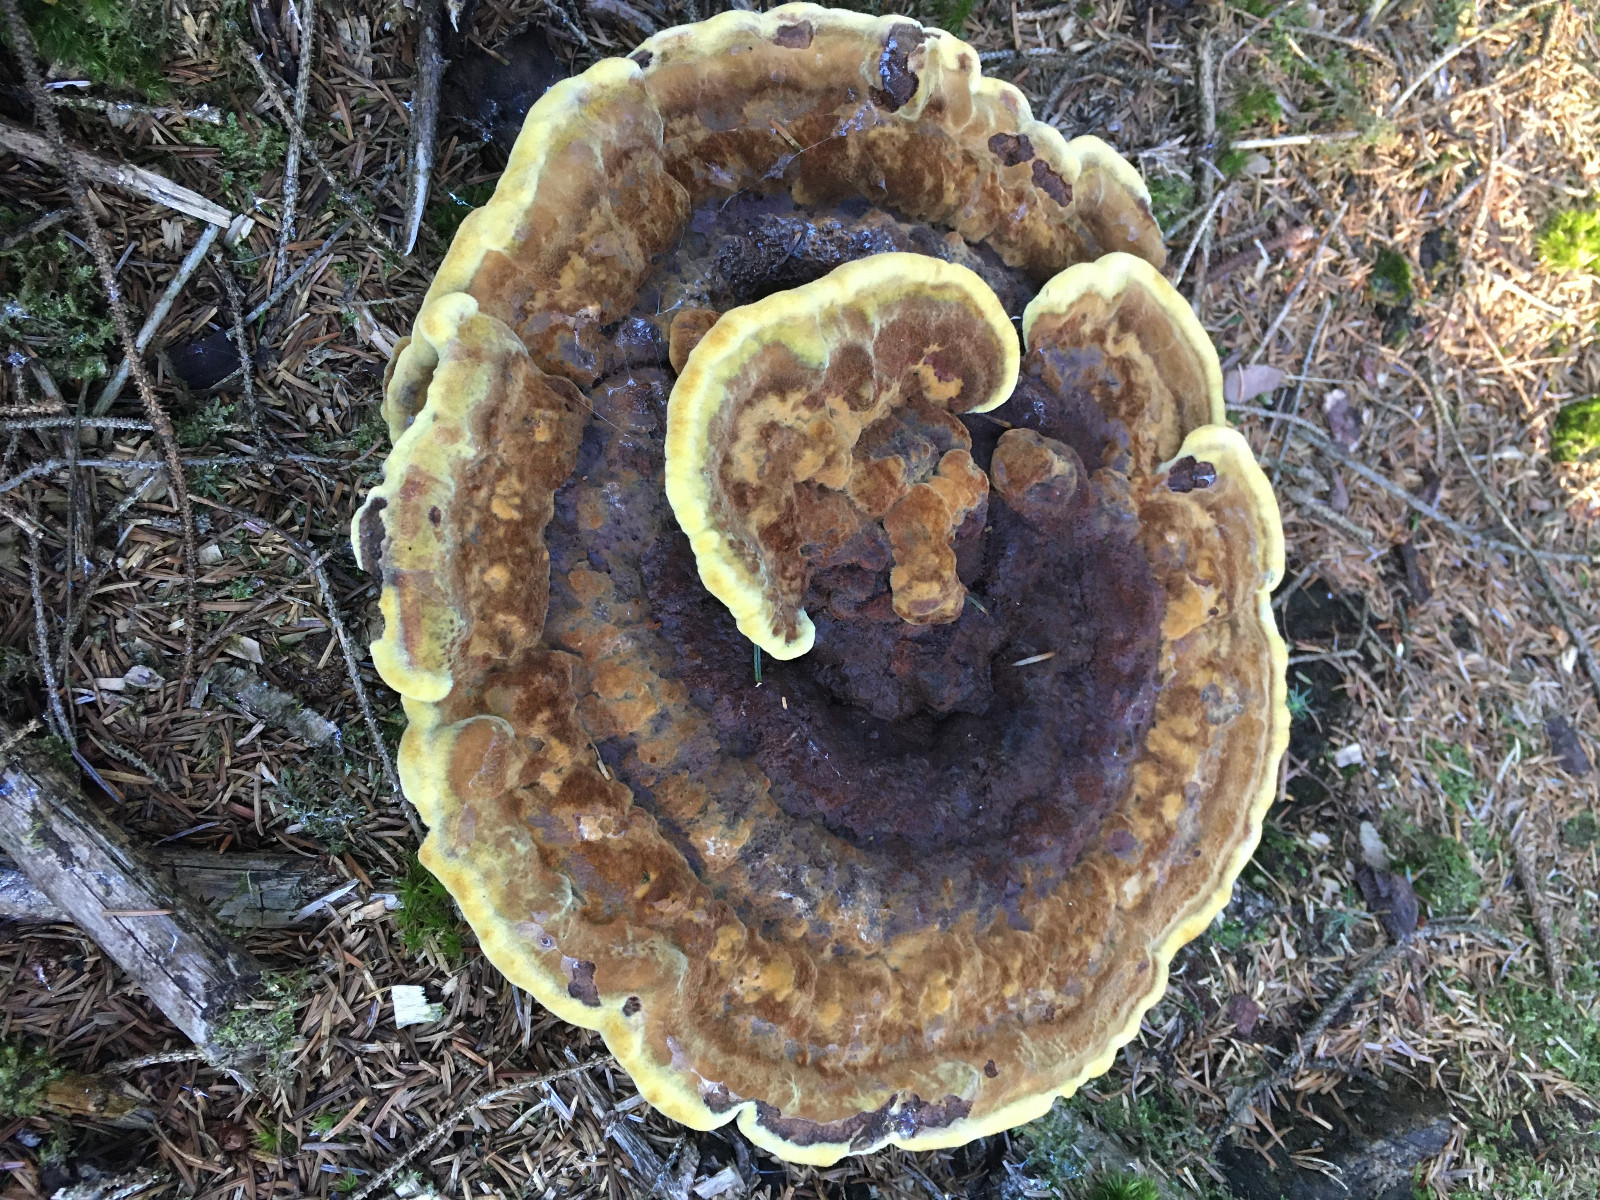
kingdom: Fungi
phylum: Basidiomycota
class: Agaricomycetes
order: Polyporales
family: Laetiporaceae
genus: Phaeolus
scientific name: Phaeolus schweinitzii
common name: brunporesvamp
